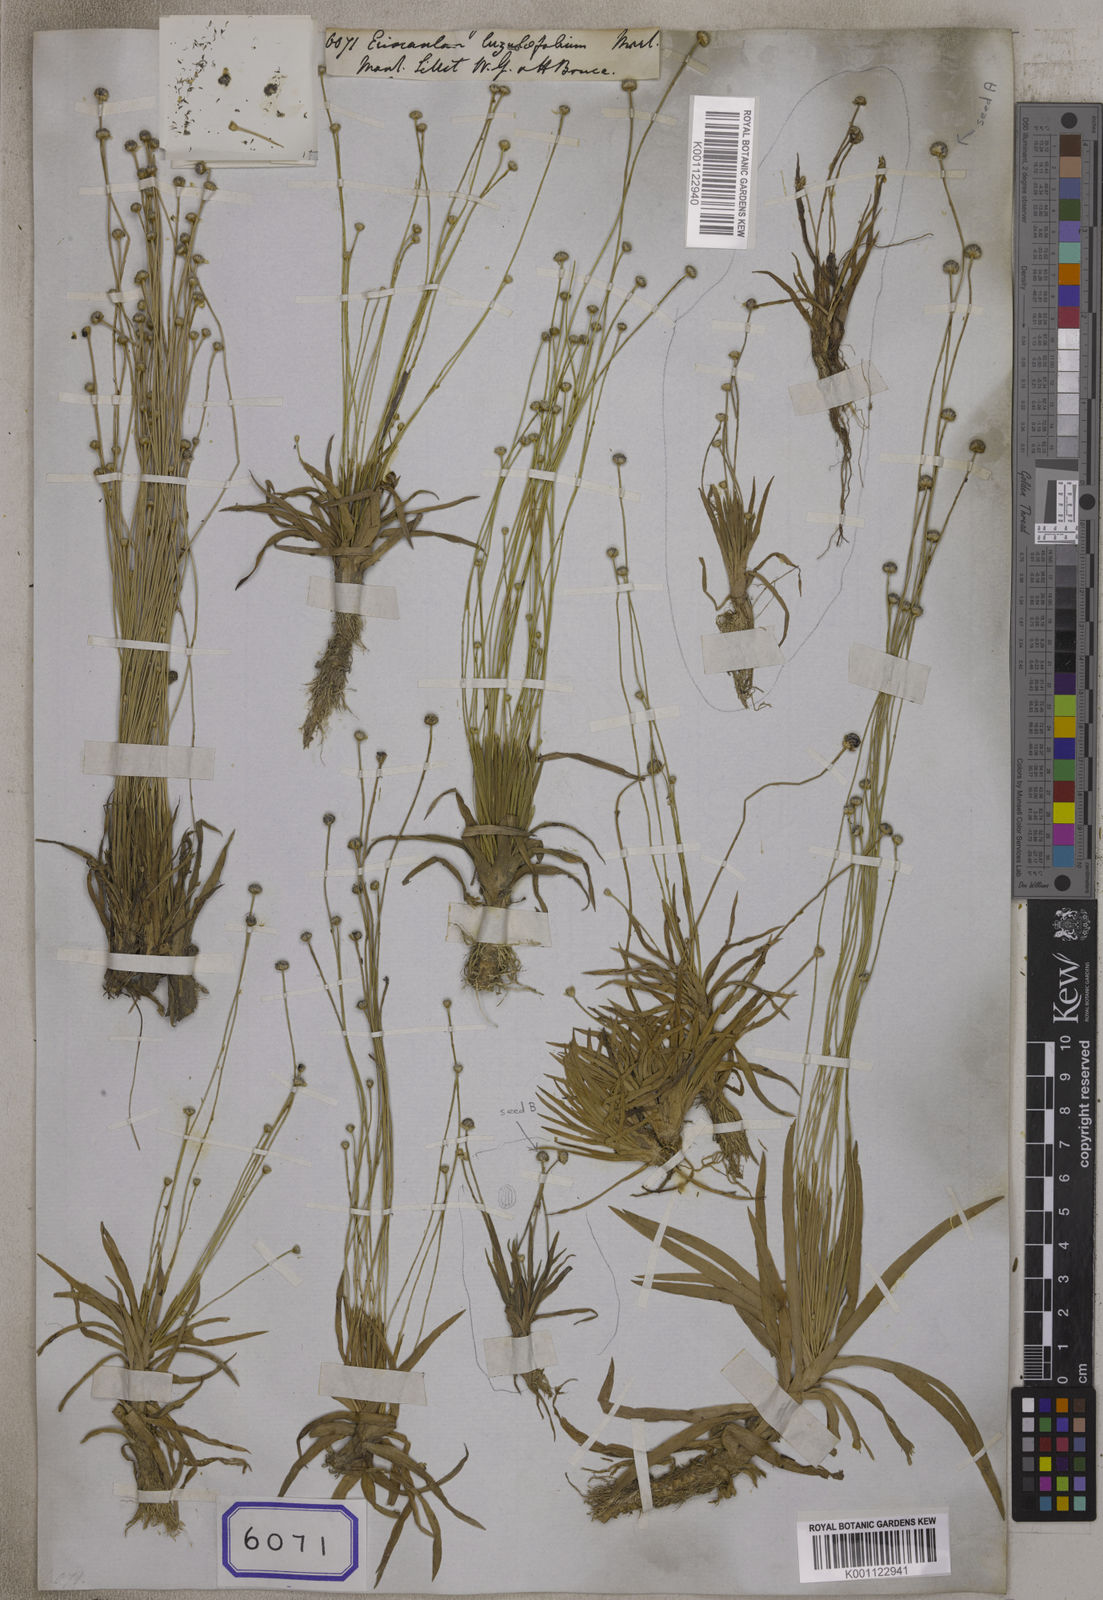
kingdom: Plantae
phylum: Tracheophyta
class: Liliopsida
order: Poales
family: Eriocaulaceae
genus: Eriocaulon
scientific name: Eriocaulon nepalense
